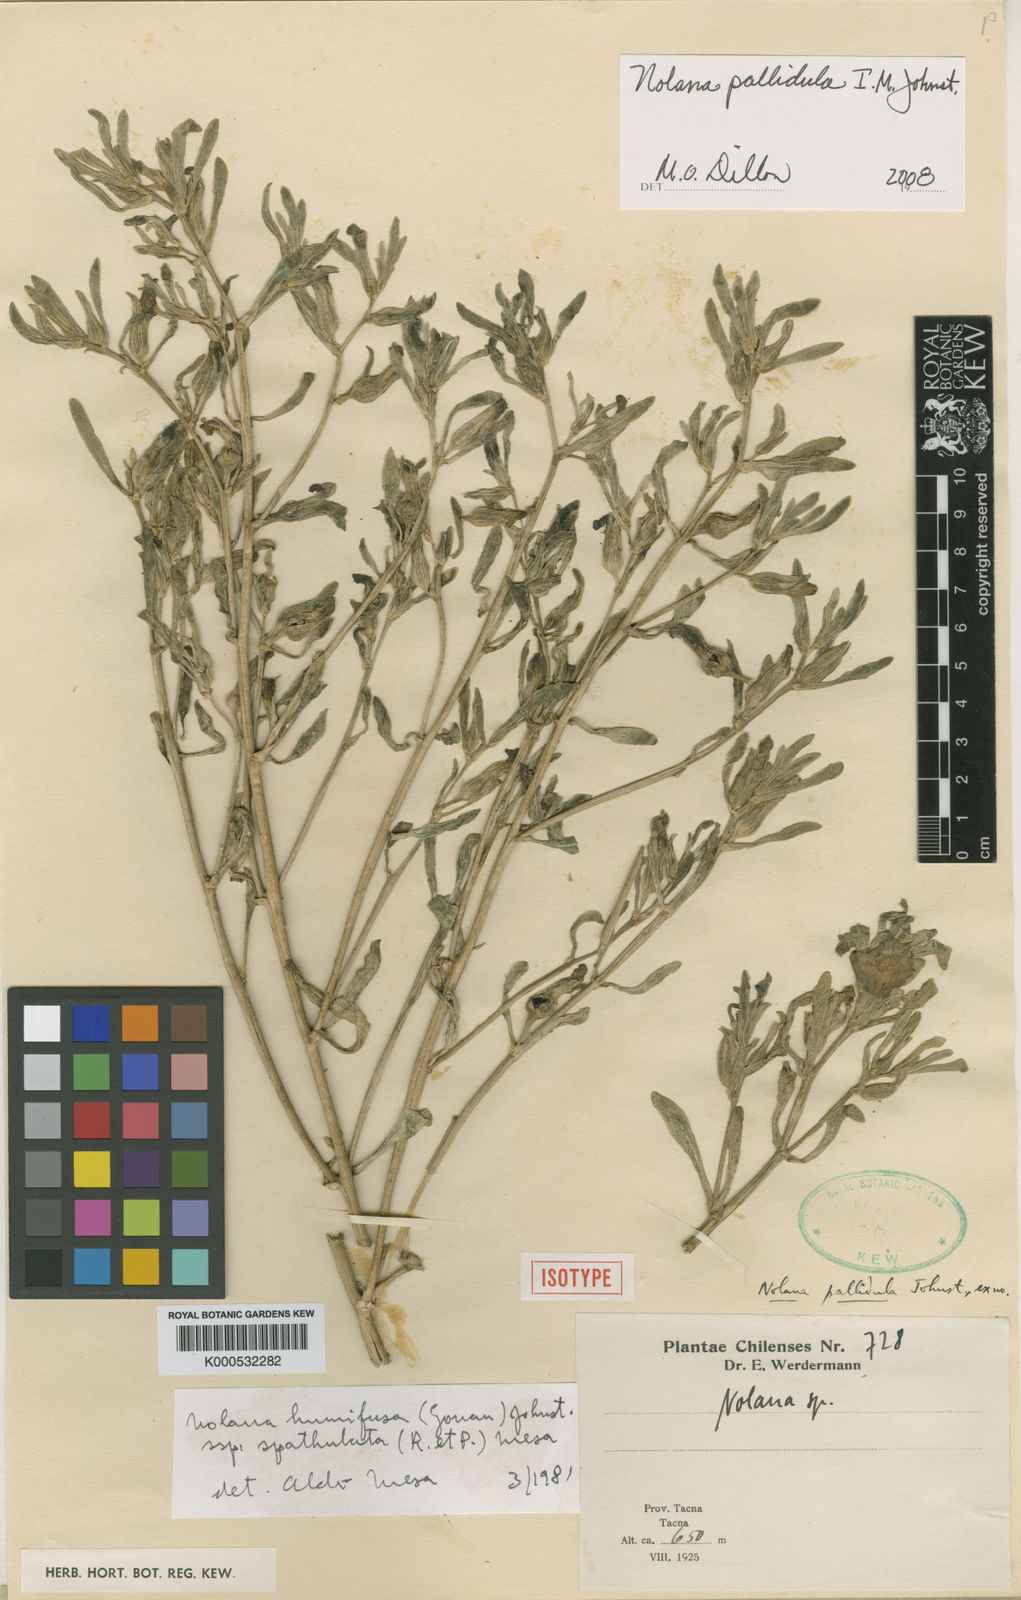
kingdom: Plantae
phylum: Tracheophyta
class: Magnoliopsida
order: Solanales
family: Solanaceae
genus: Nolana
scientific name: Nolana humifusa
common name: Trailing chilean-bellflower
